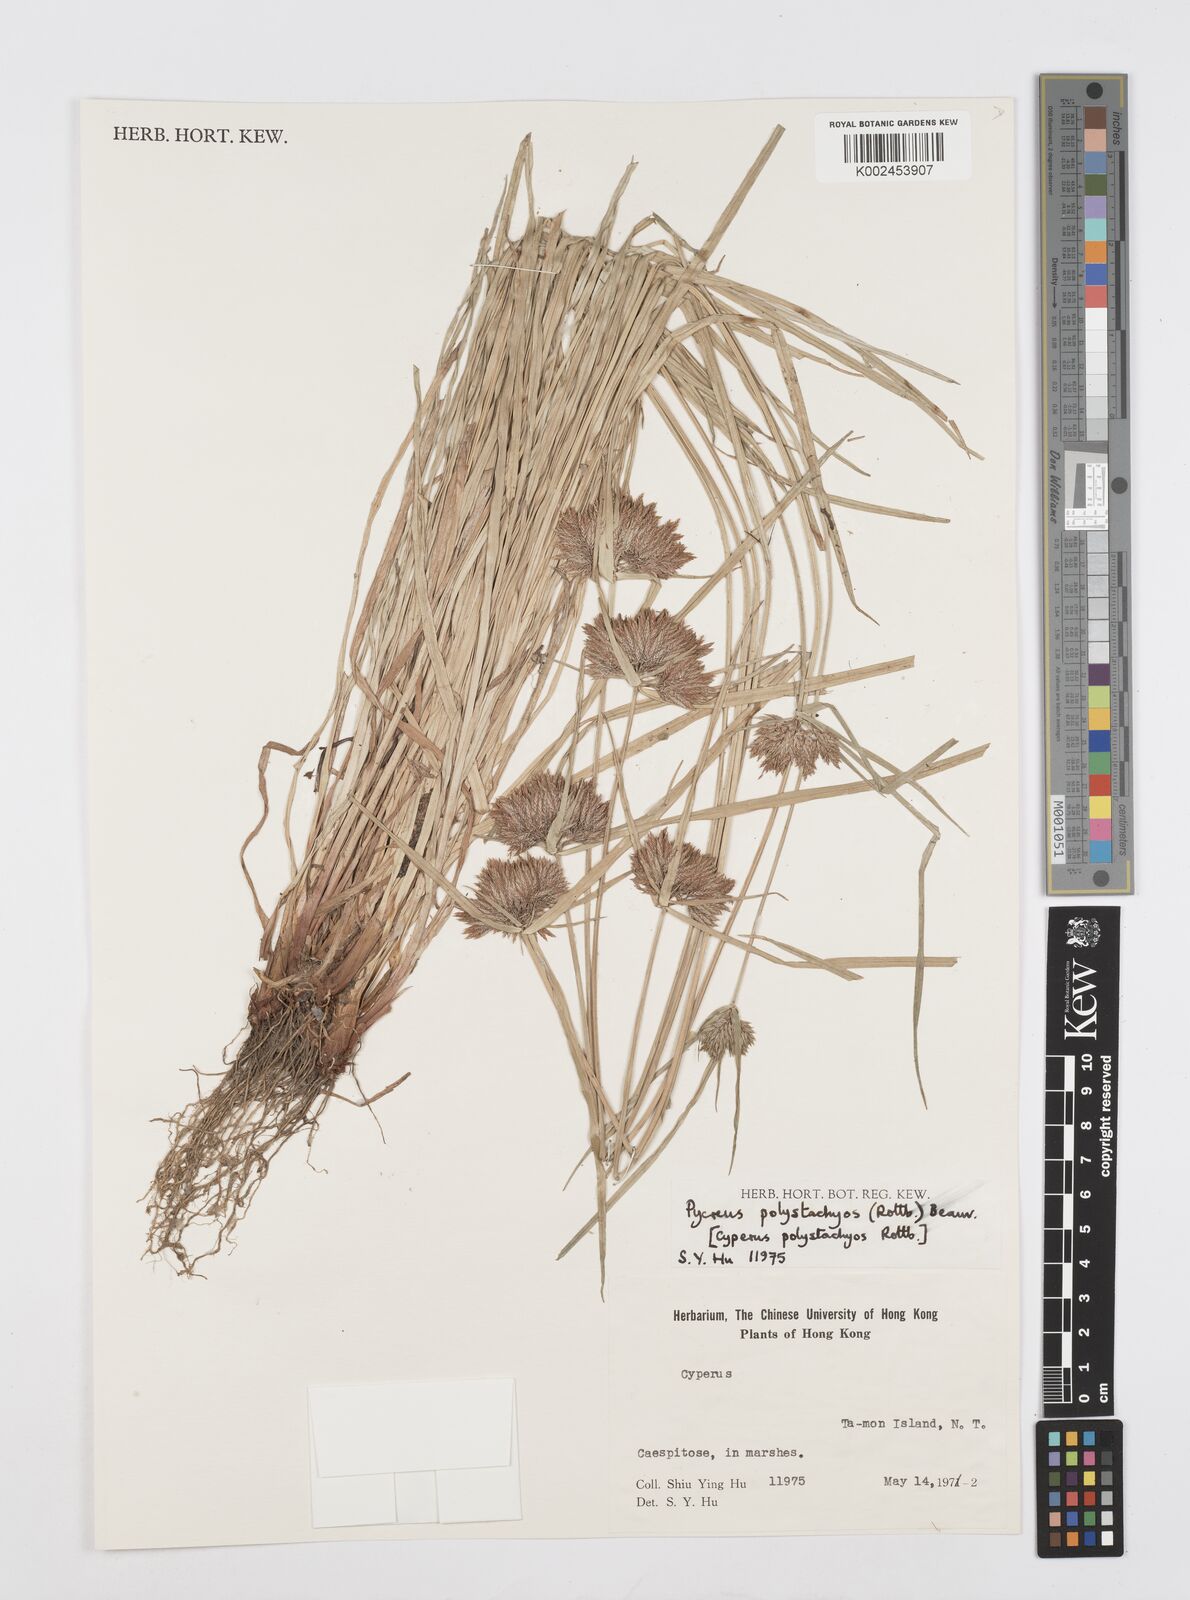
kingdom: Plantae
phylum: Tracheophyta
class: Liliopsida
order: Poales
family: Cyperaceae
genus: Cyperus
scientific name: Cyperus polystachyos
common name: Bunchy flat sedge
